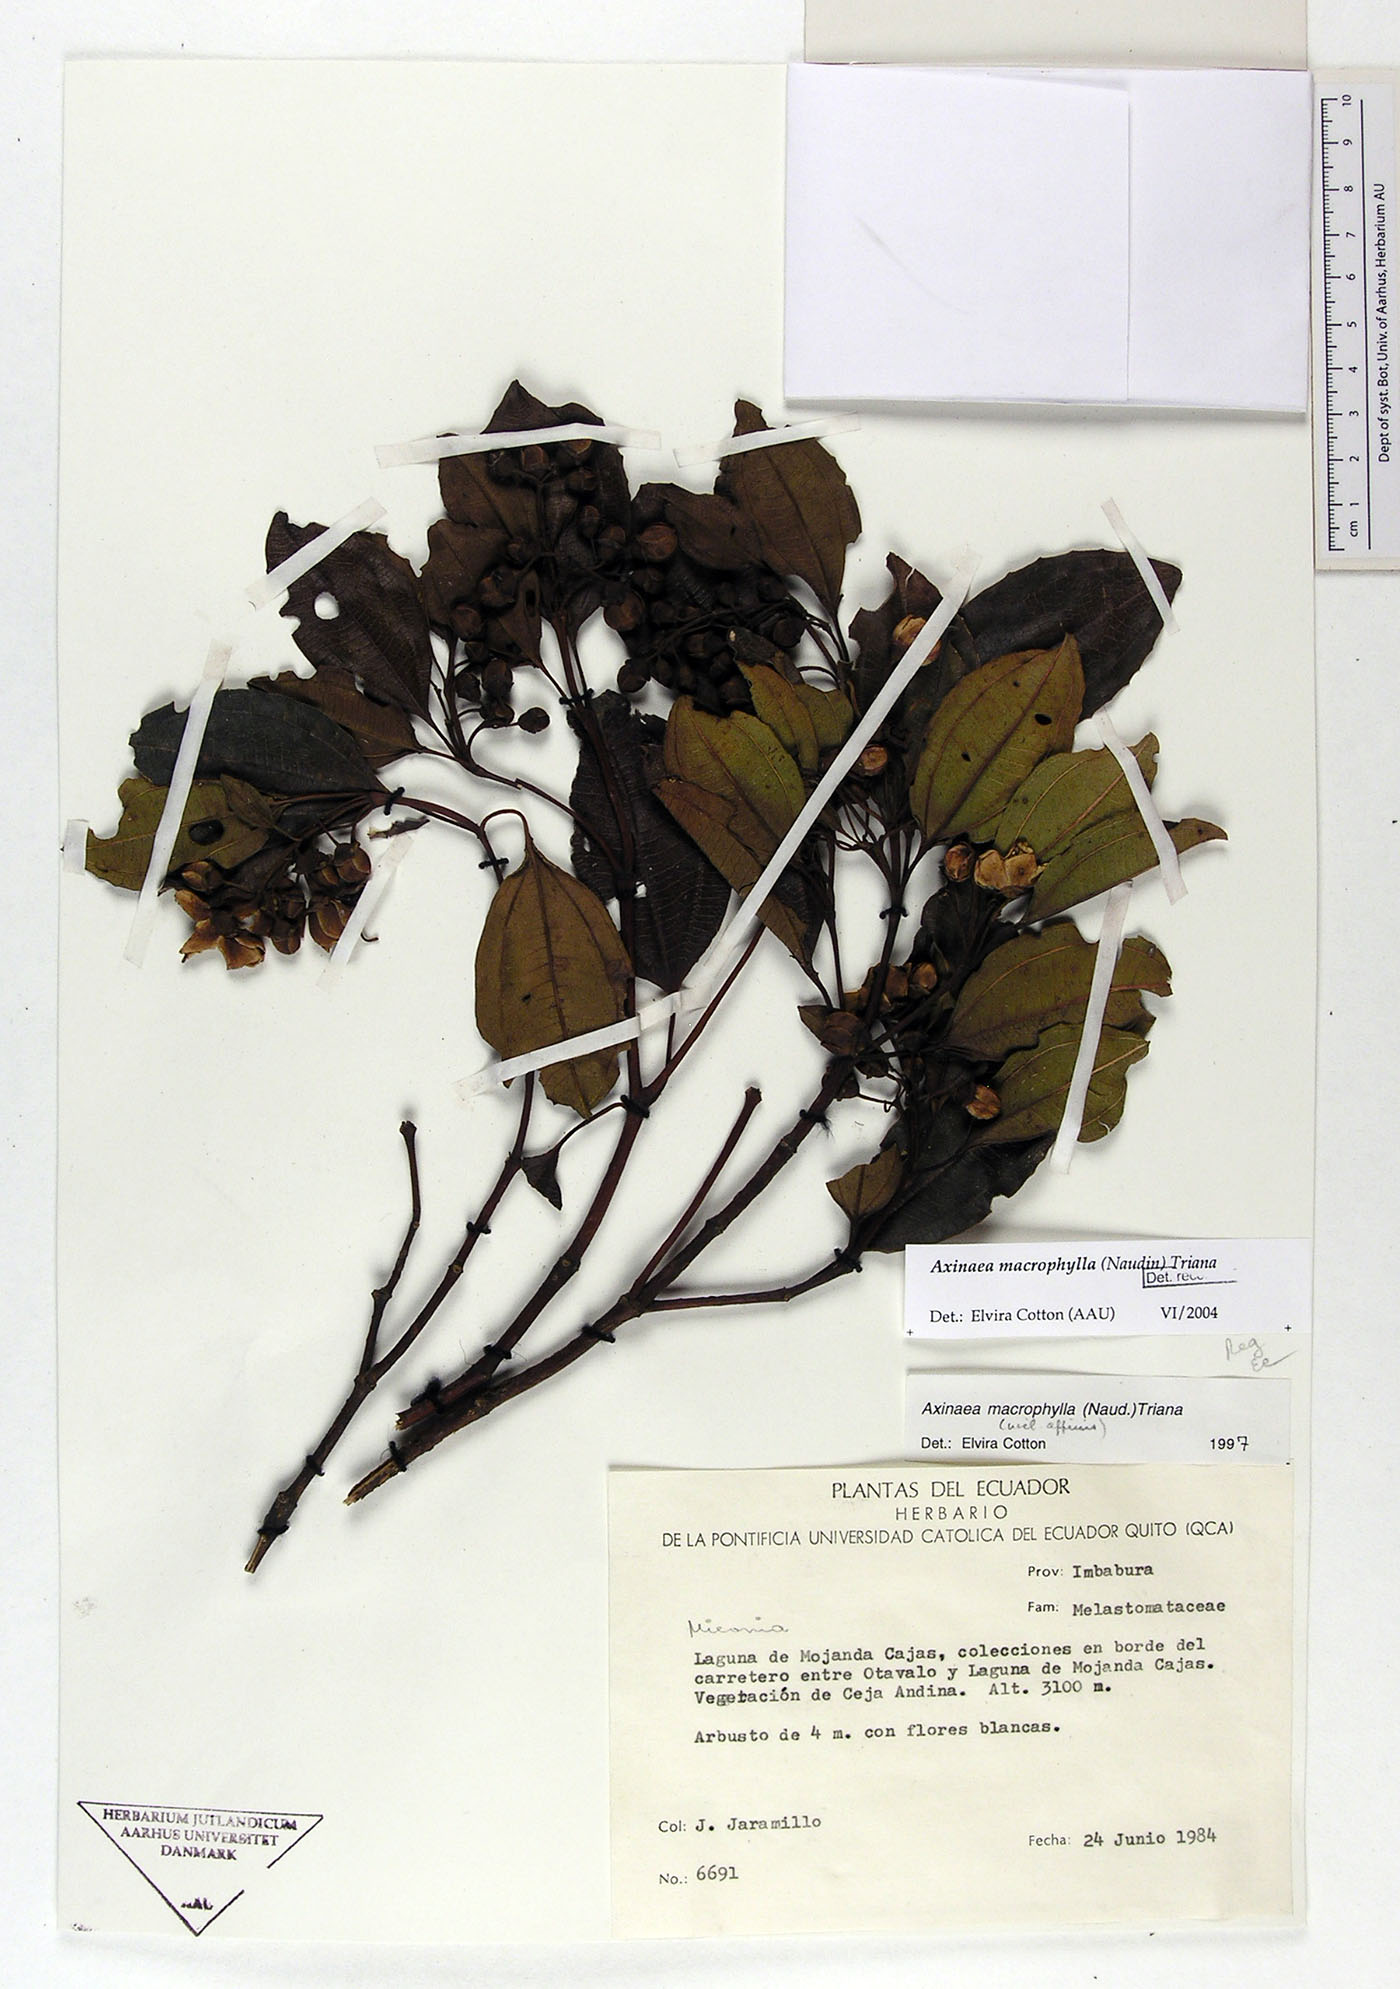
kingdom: Plantae
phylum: Tracheophyta
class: Magnoliopsida
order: Myrtales
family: Melastomataceae
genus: Axinaea
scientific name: Axinaea macrophylla
